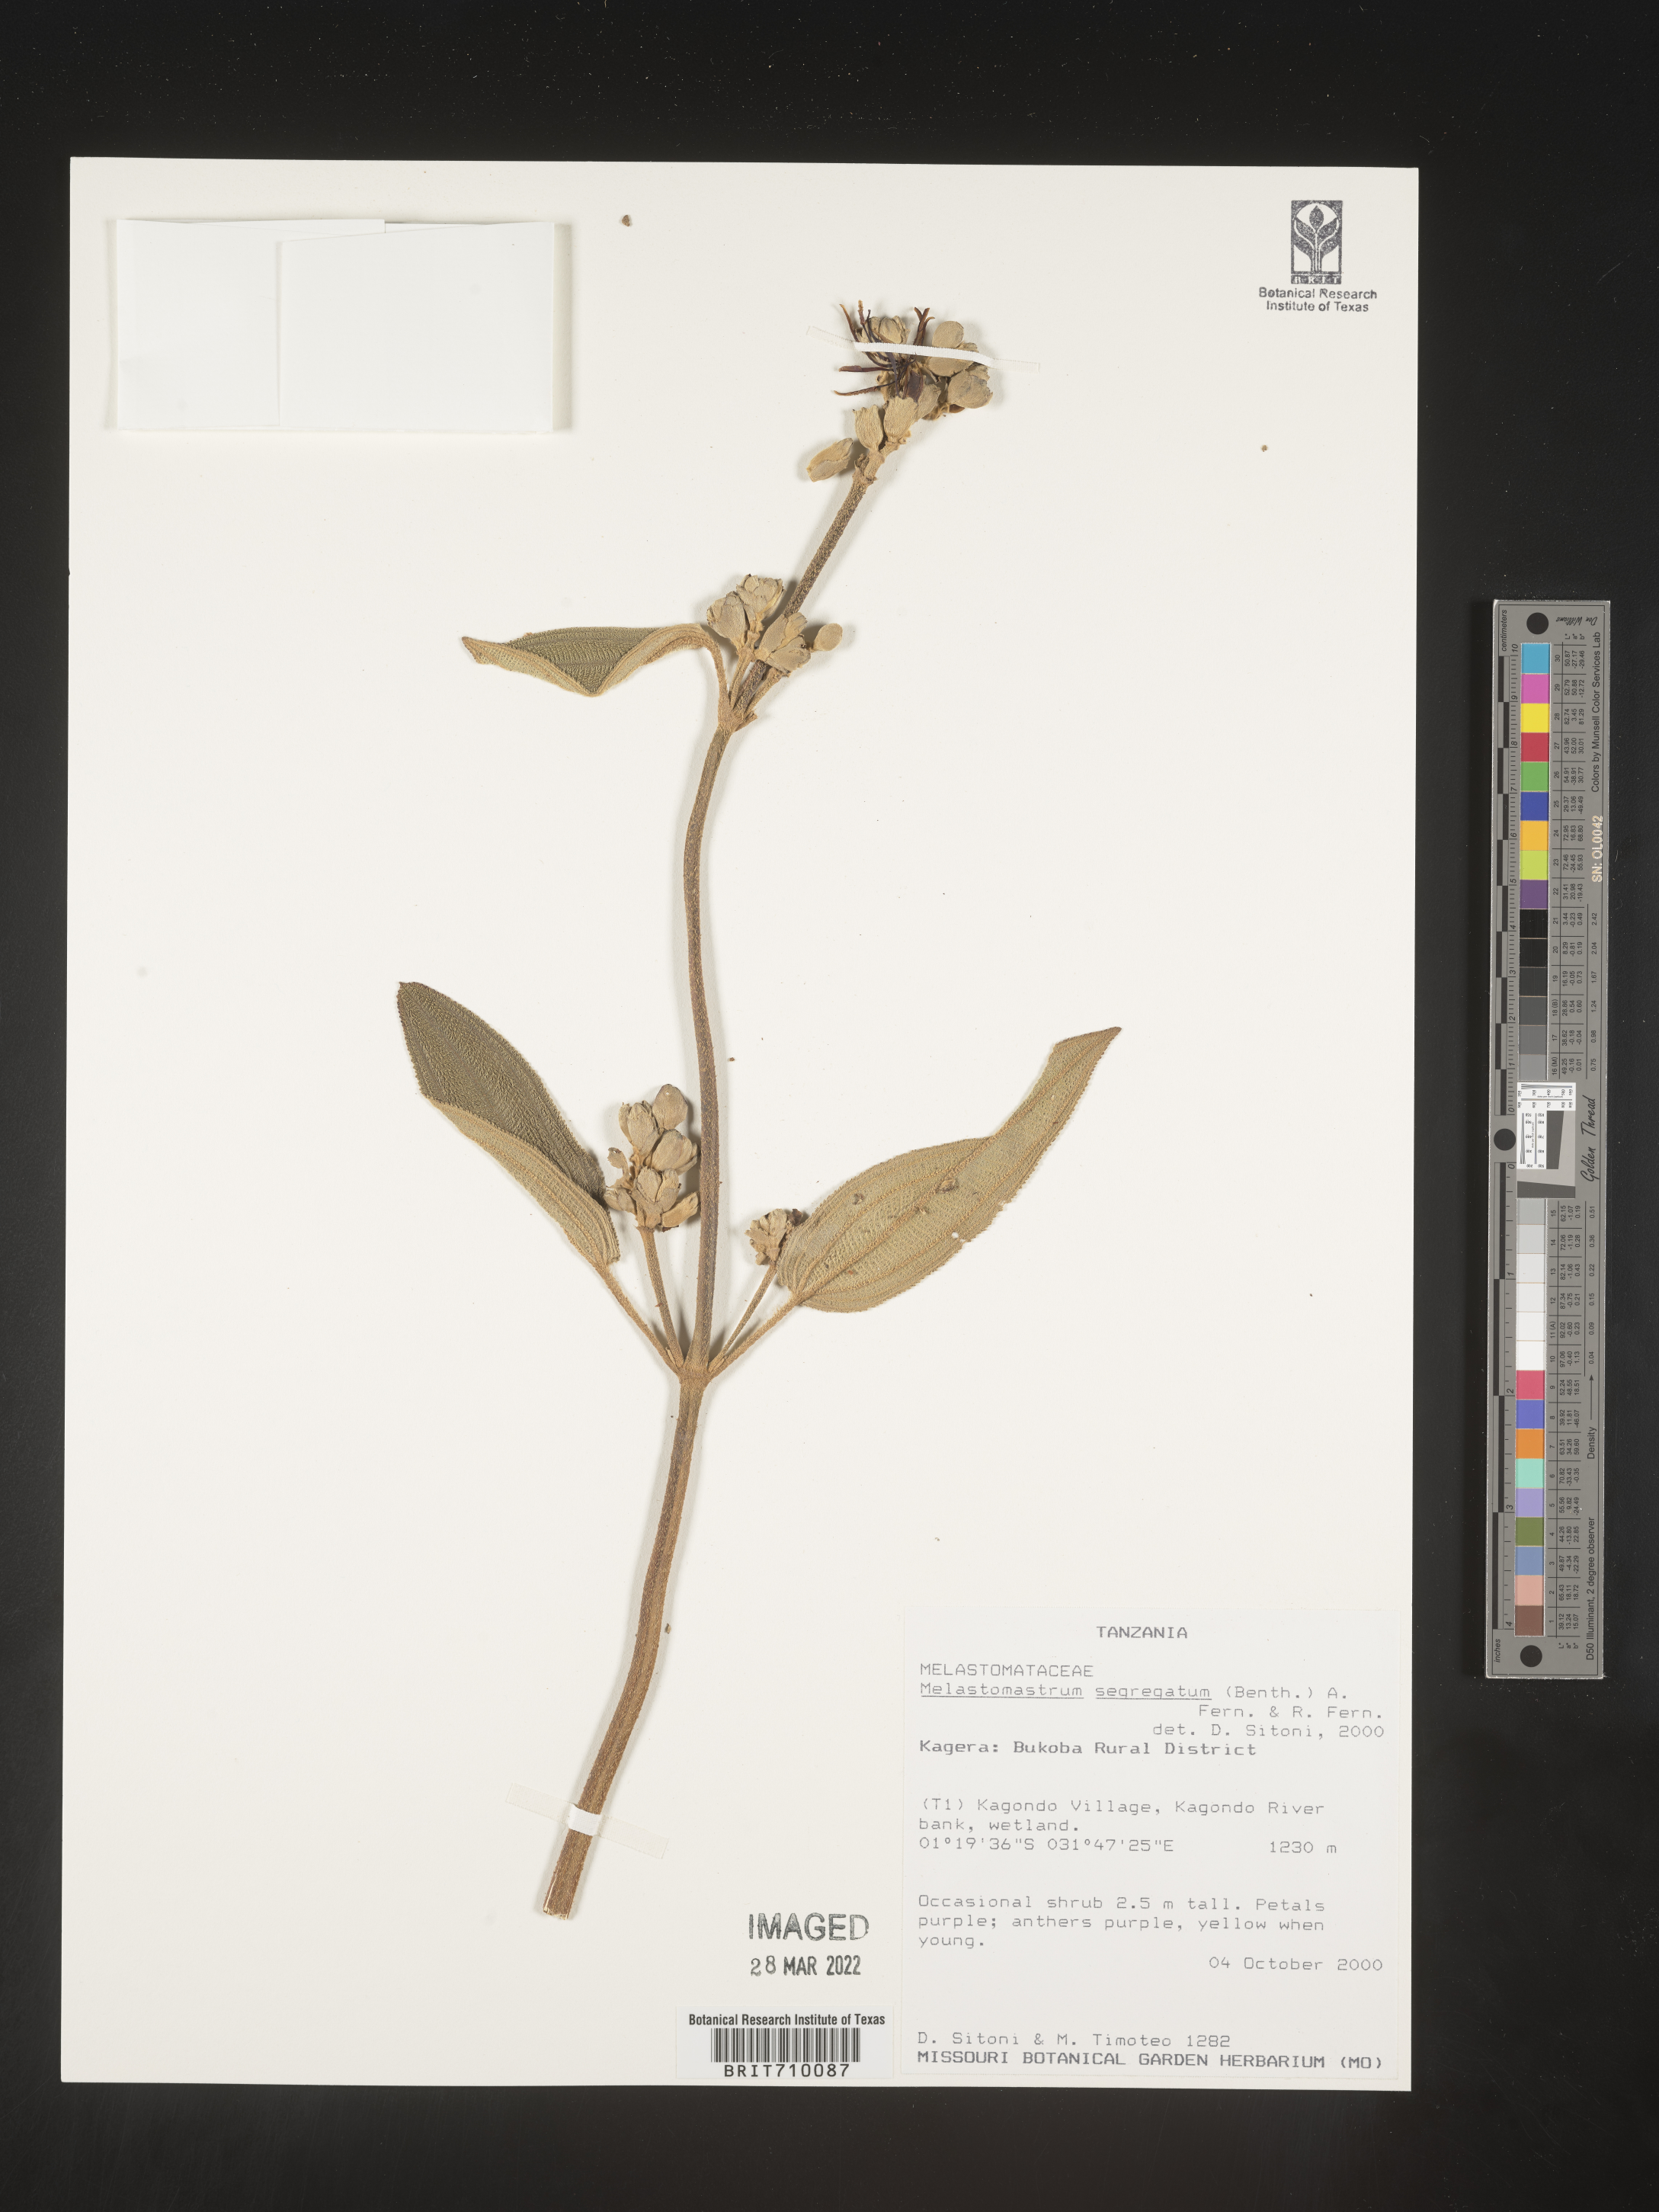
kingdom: Plantae
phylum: Tracheophyta
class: Magnoliopsida
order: Myrtales
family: Melastomataceae
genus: Melastomastrum
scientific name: Melastomastrum
